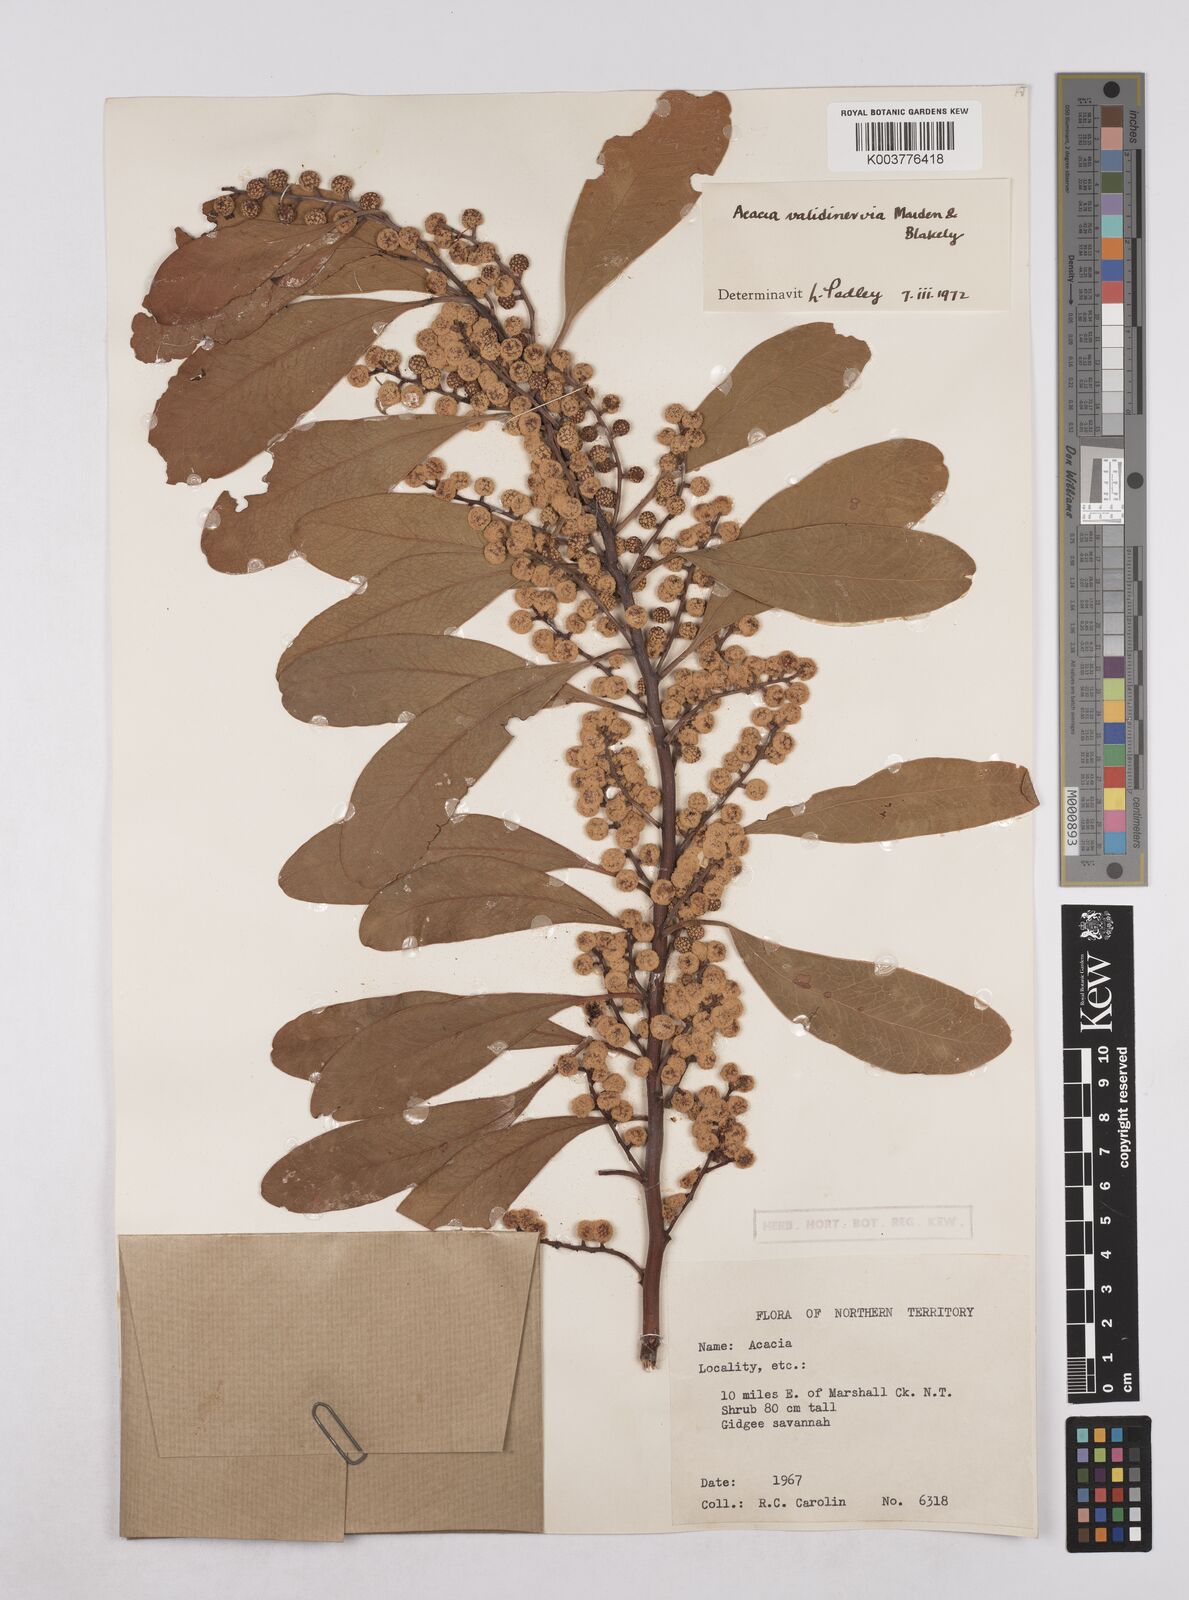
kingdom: Plantae
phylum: Tracheophyta
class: Magnoliopsida
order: Fabales
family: Fabaceae
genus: Acacia
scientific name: Acacia validinervia
